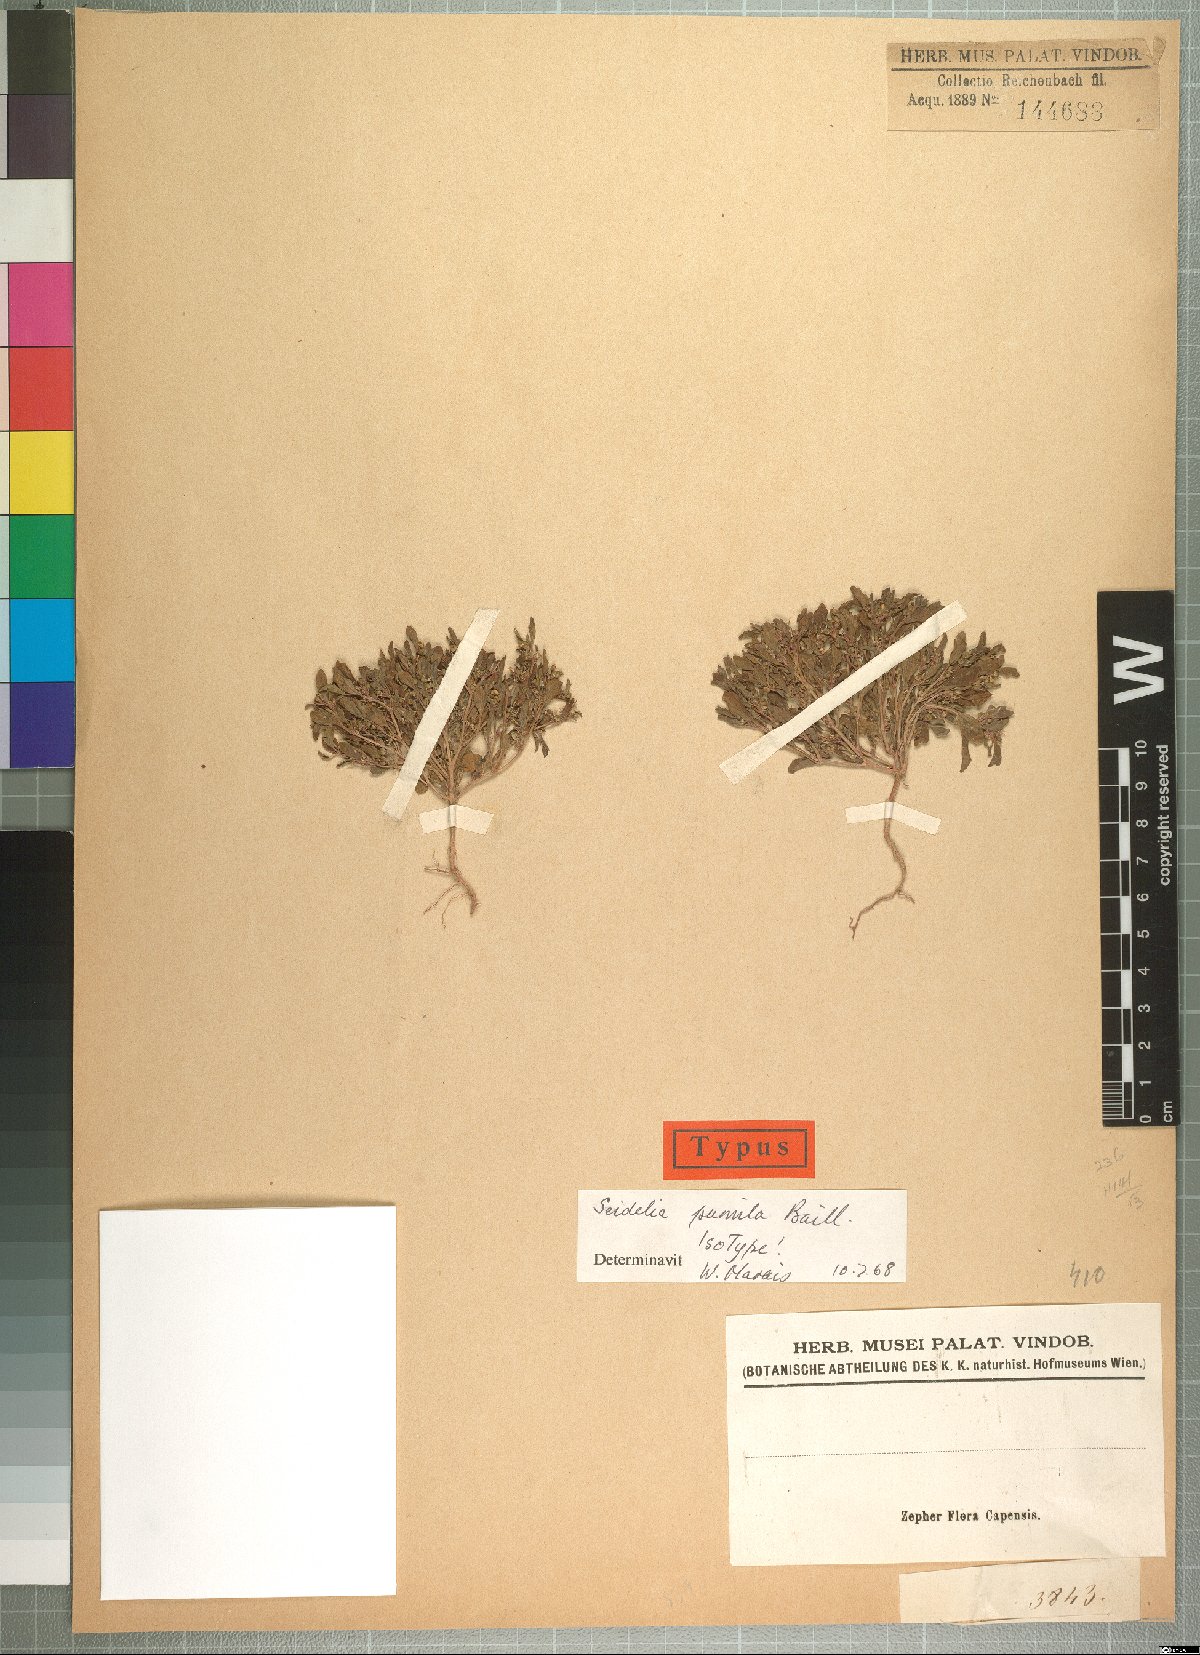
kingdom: Plantae
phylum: Tracheophyta
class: Magnoliopsida
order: Malpighiales
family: Euphorbiaceae
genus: Seidelia
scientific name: Seidelia triandra
